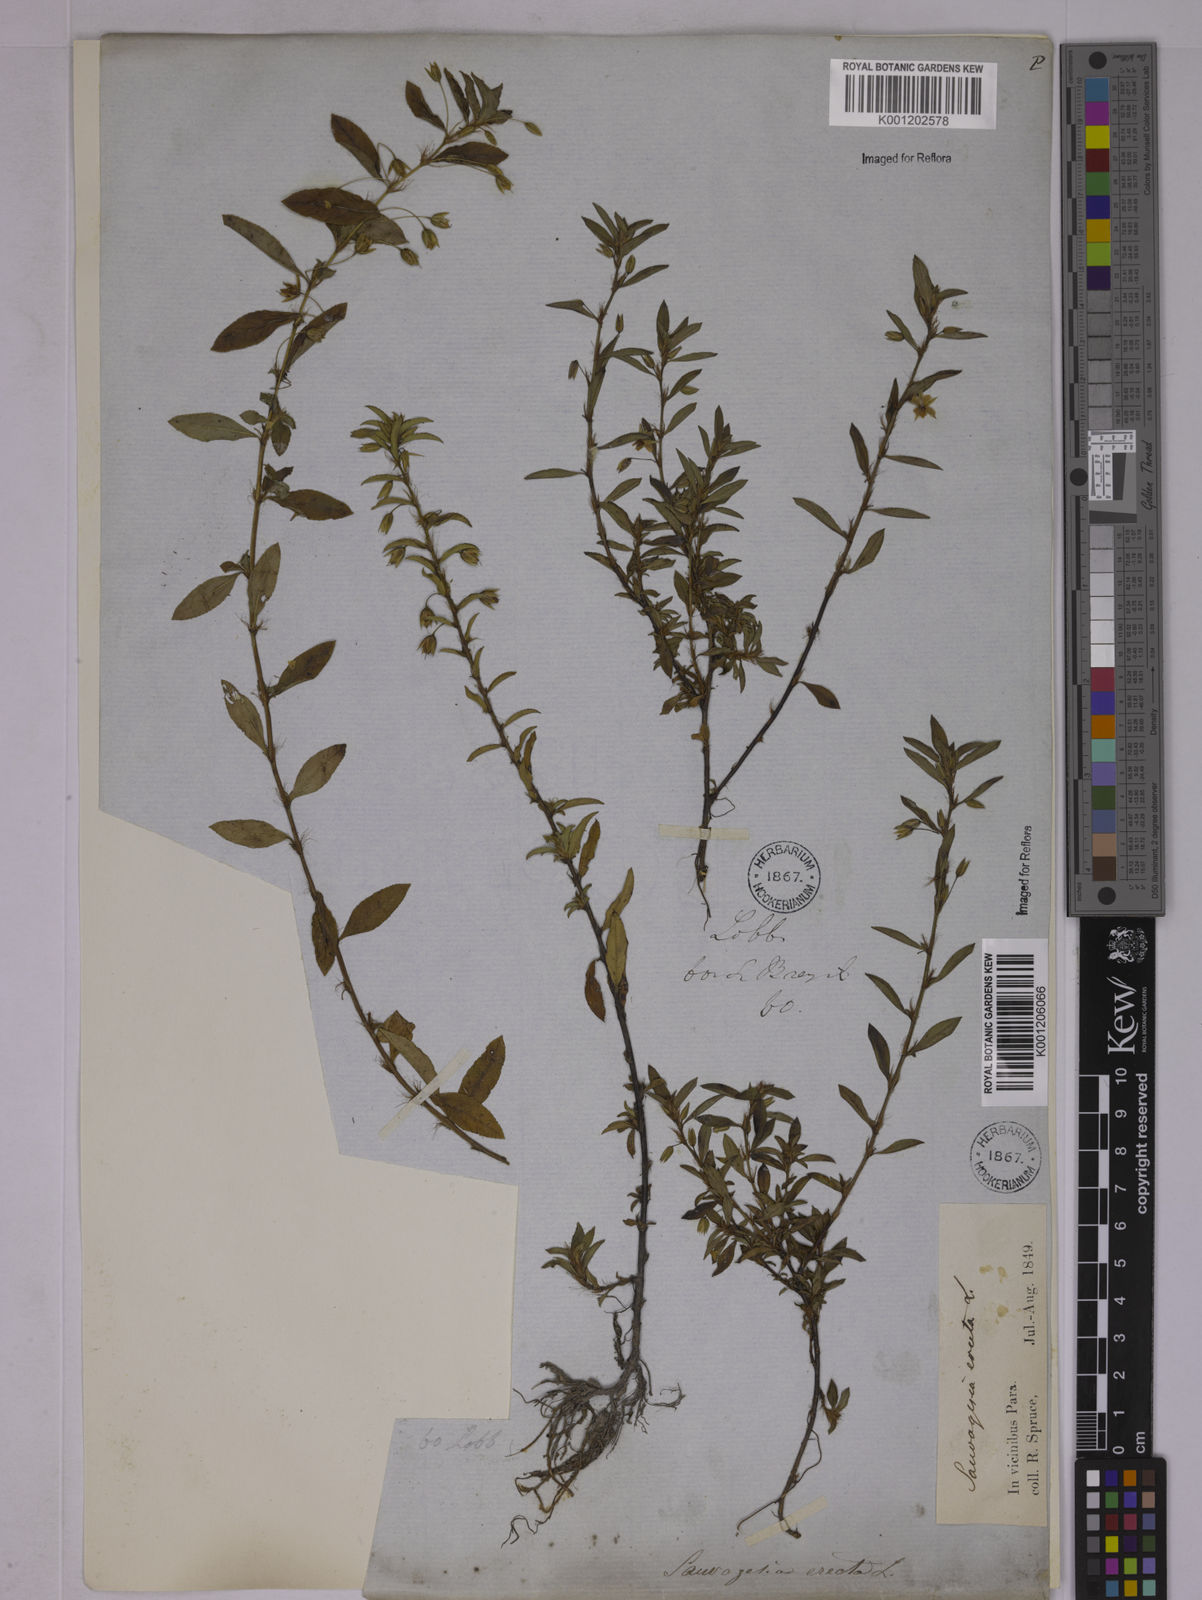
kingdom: Plantae
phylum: Tracheophyta
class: Magnoliopsida
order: Malpighiales
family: Ochnaceae
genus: Sauvagesia
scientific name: Sauvagesia erecta
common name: Creole tea
